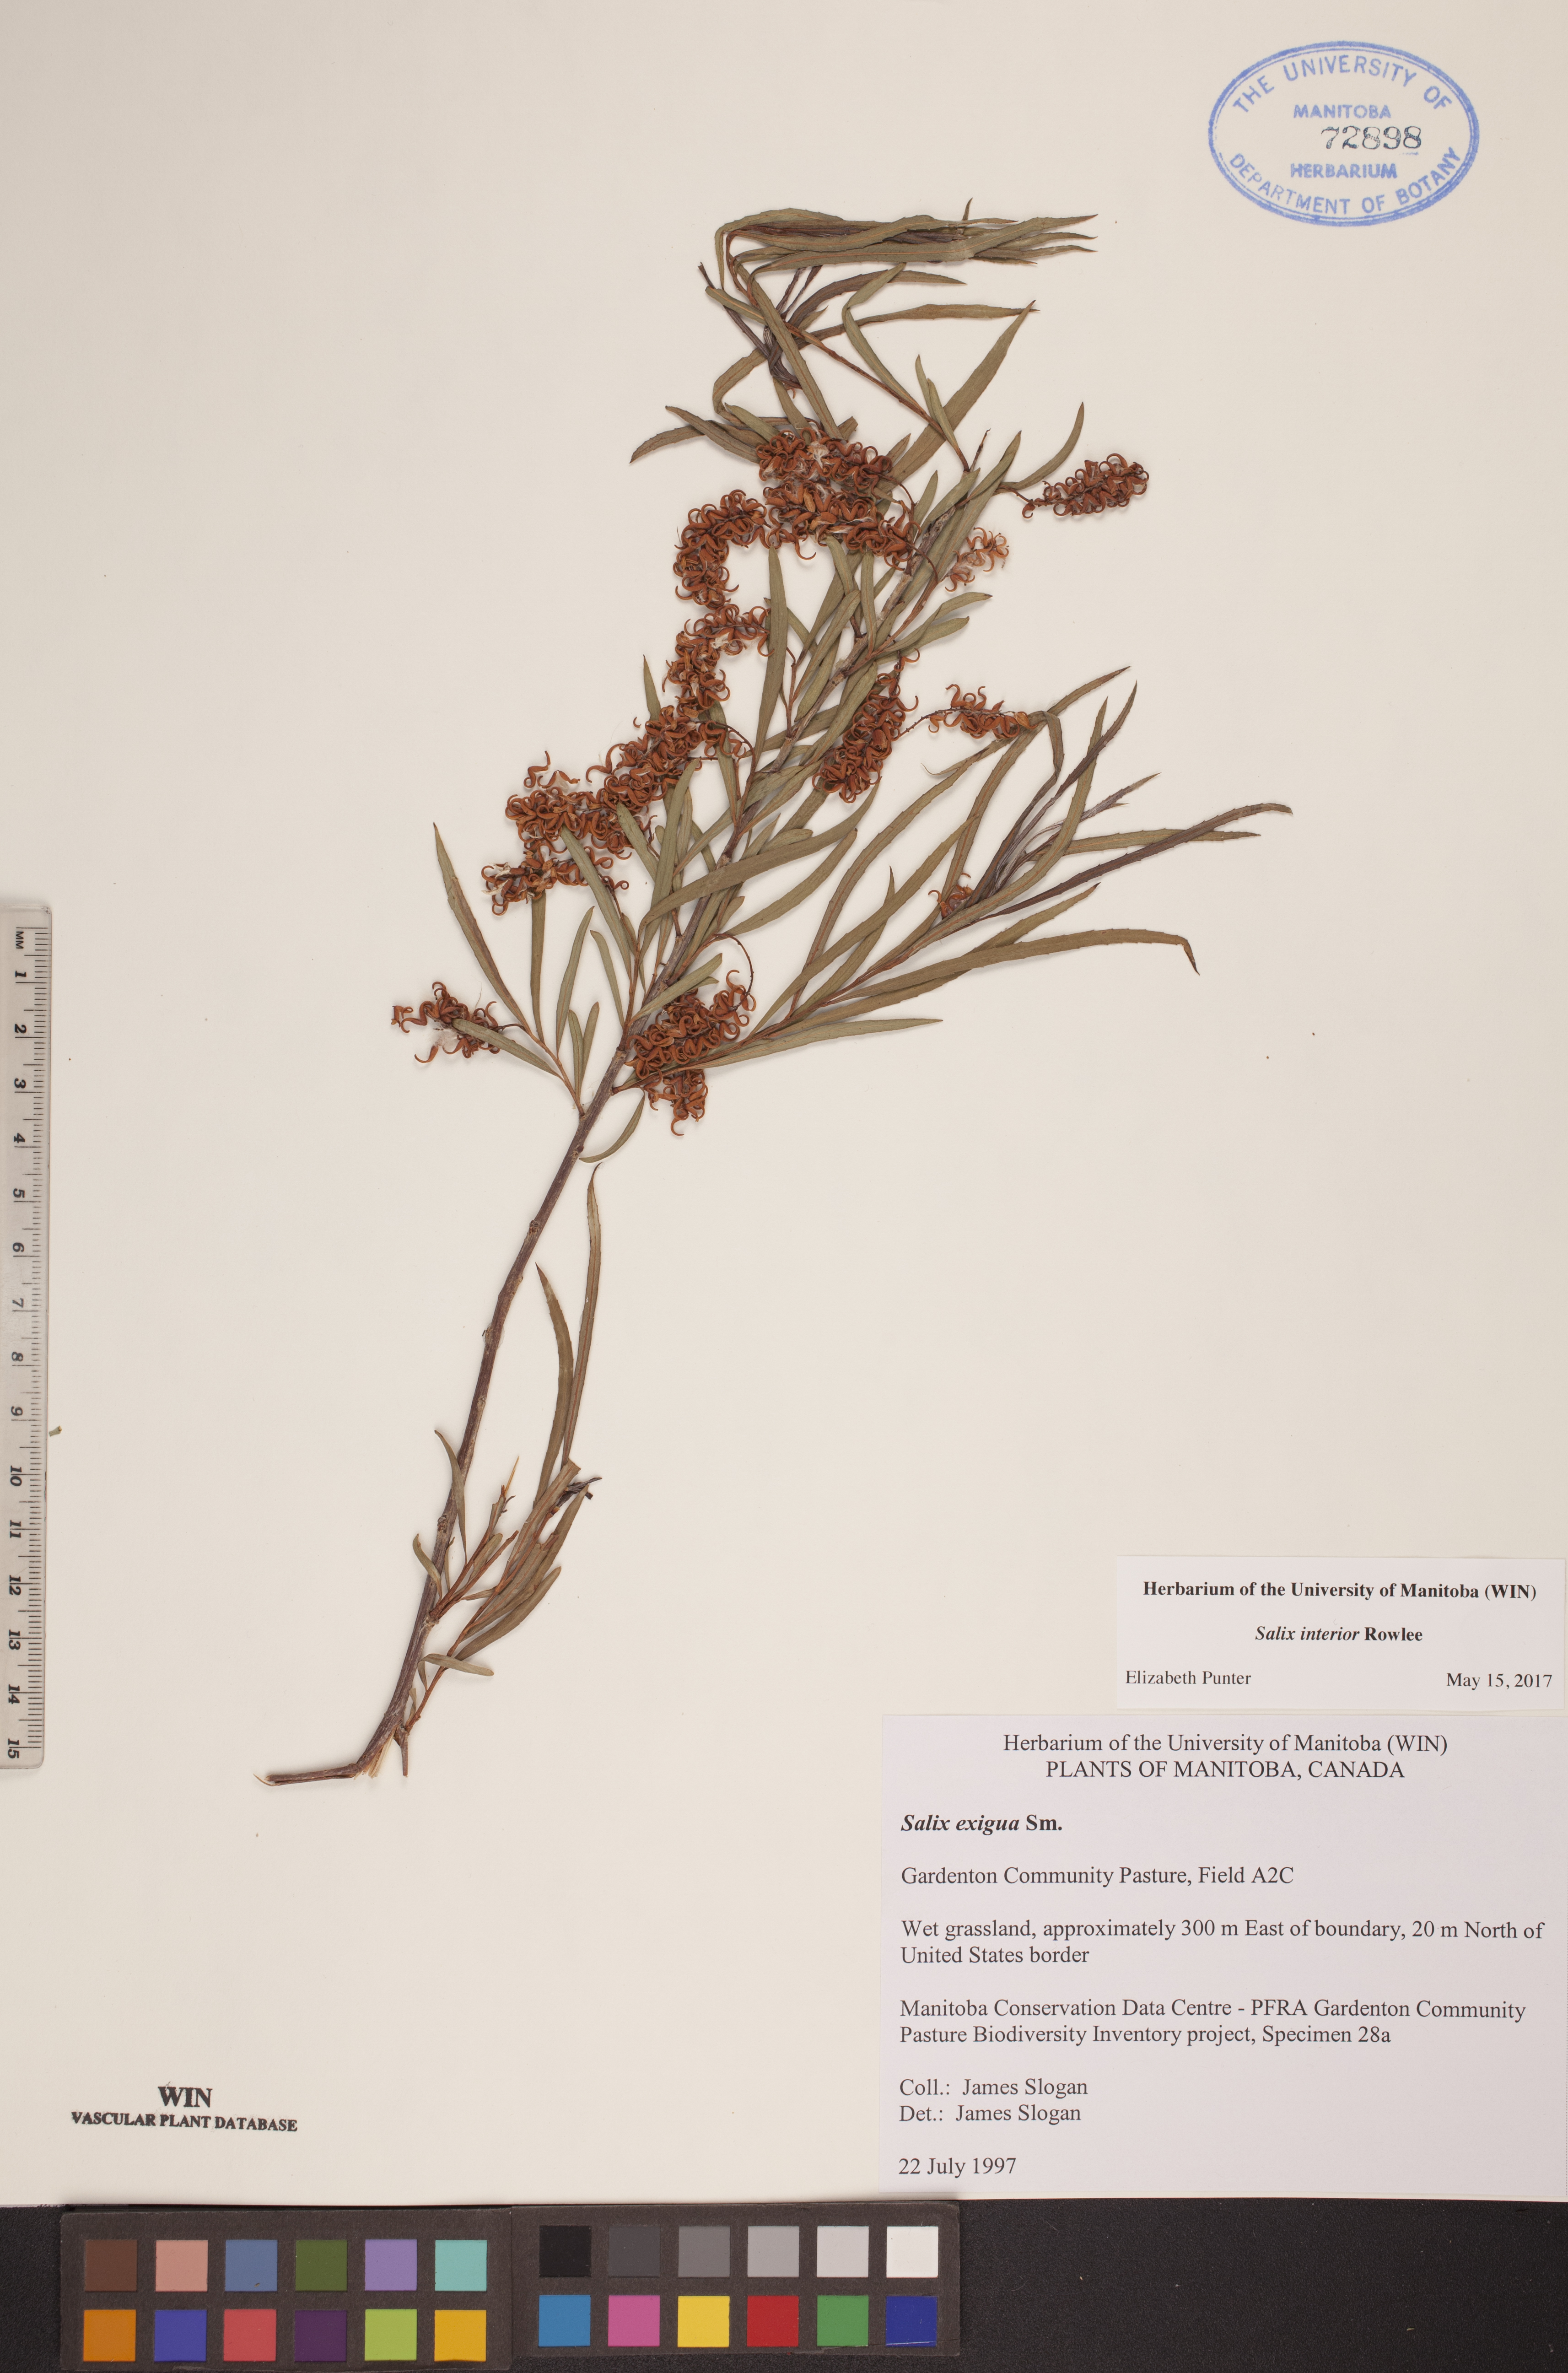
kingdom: Plantae
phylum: Tracheophyta
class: Magnoliopsida
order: Malpighiales
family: Salicaceae
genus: Salix
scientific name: Salix interior
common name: Sandbar willow
